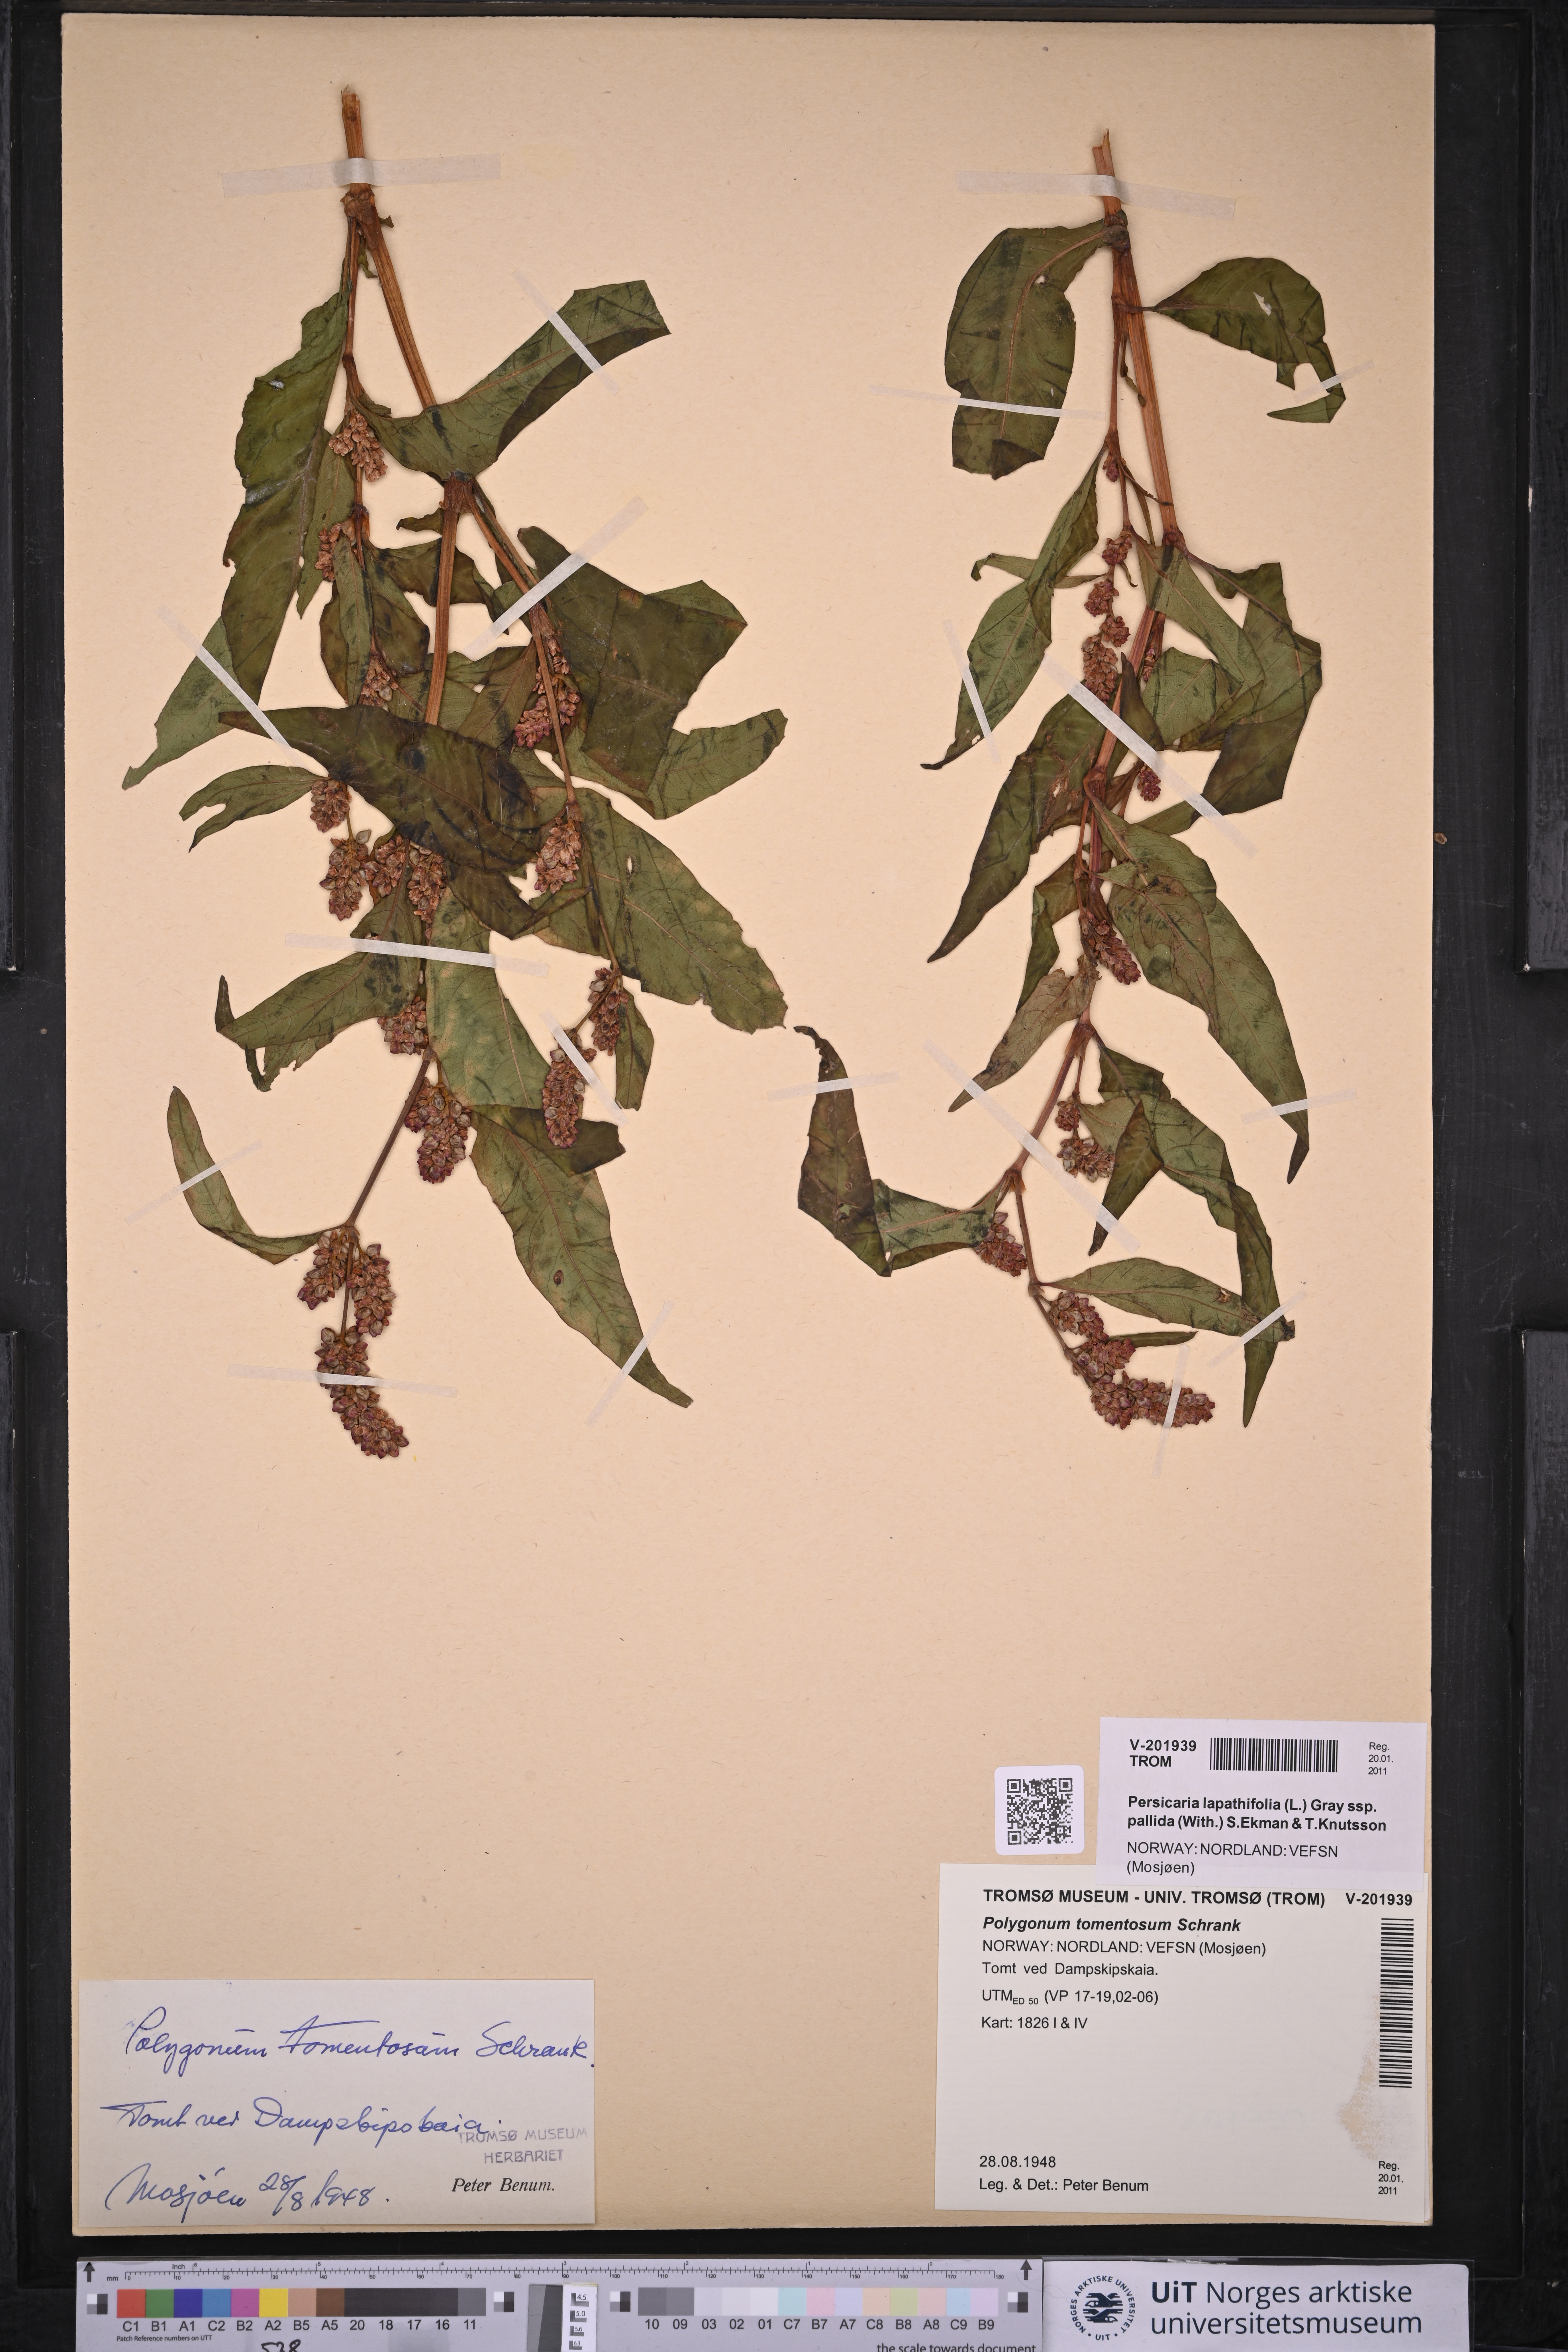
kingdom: Plantae
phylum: Tracheophyta
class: Magnoliopsida
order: Caryophyllales
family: Polygonaceae
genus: Persicaria
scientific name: Persicaria lapathifolia
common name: Curlytop knotweed
